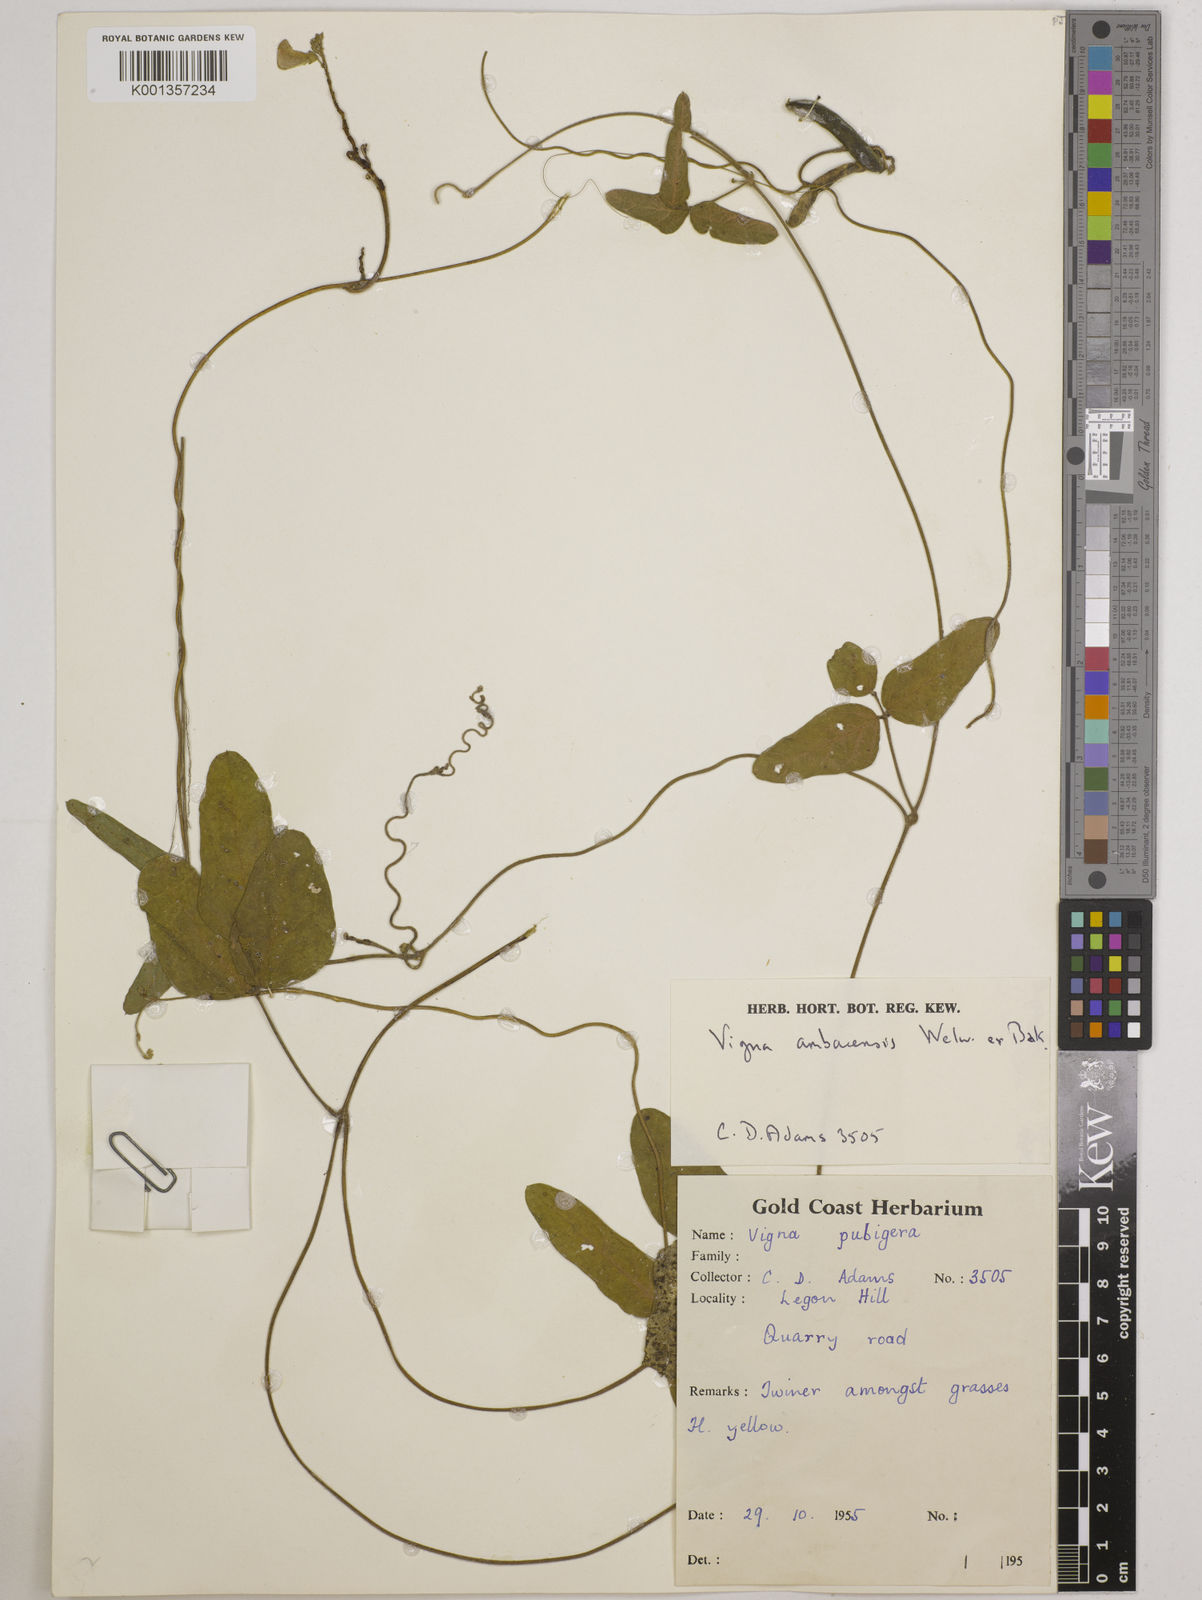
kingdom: Plantae
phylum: Tracheophyta
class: Magnoliopsida
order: Fabales
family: Fabaceae
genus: Vigna
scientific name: Vigna ambacensis
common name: Tsarkiyan zomo
